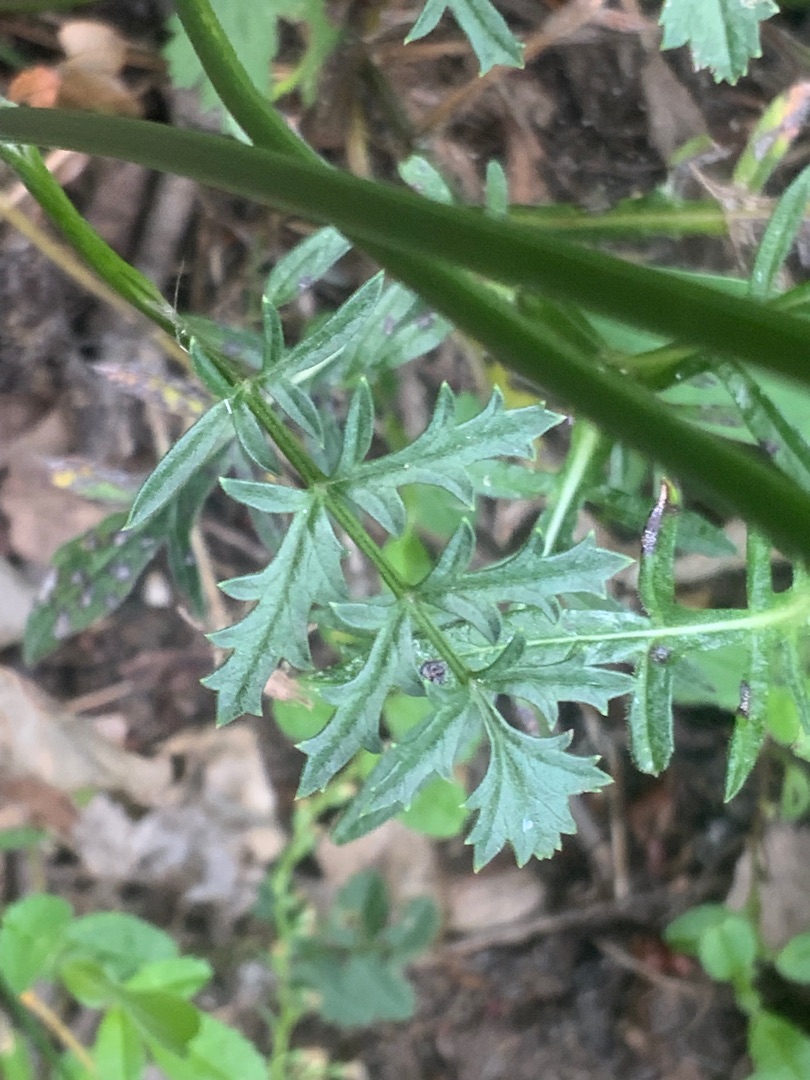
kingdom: Plantae
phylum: Tracheophyta
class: Magnoliopsida
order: Apiales
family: Apiaceae
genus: Pimpinella
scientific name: Pimpinella saxifraga
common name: Almindelig pimpinelle
